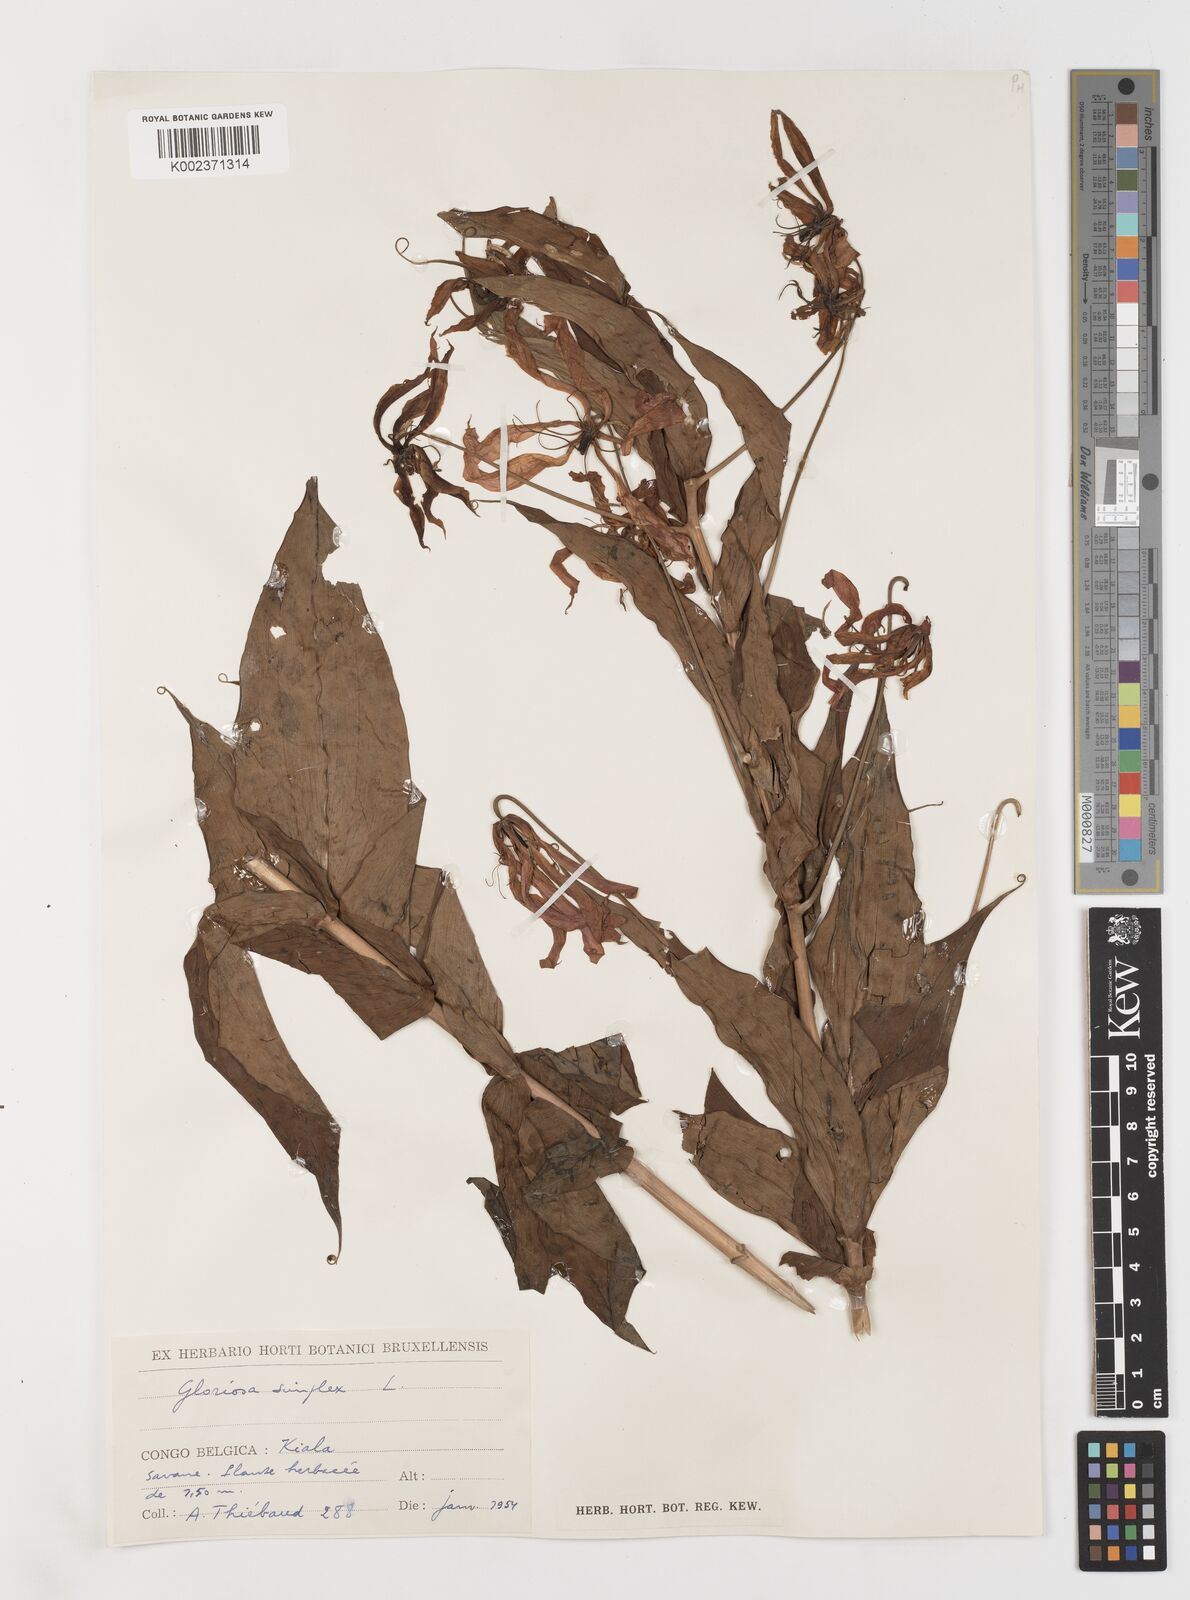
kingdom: Plantae
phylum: Tracheophyta
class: Liliopsida
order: Liliales
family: Colchicaceae
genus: Gloriosa
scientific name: Gloriosa simplex
